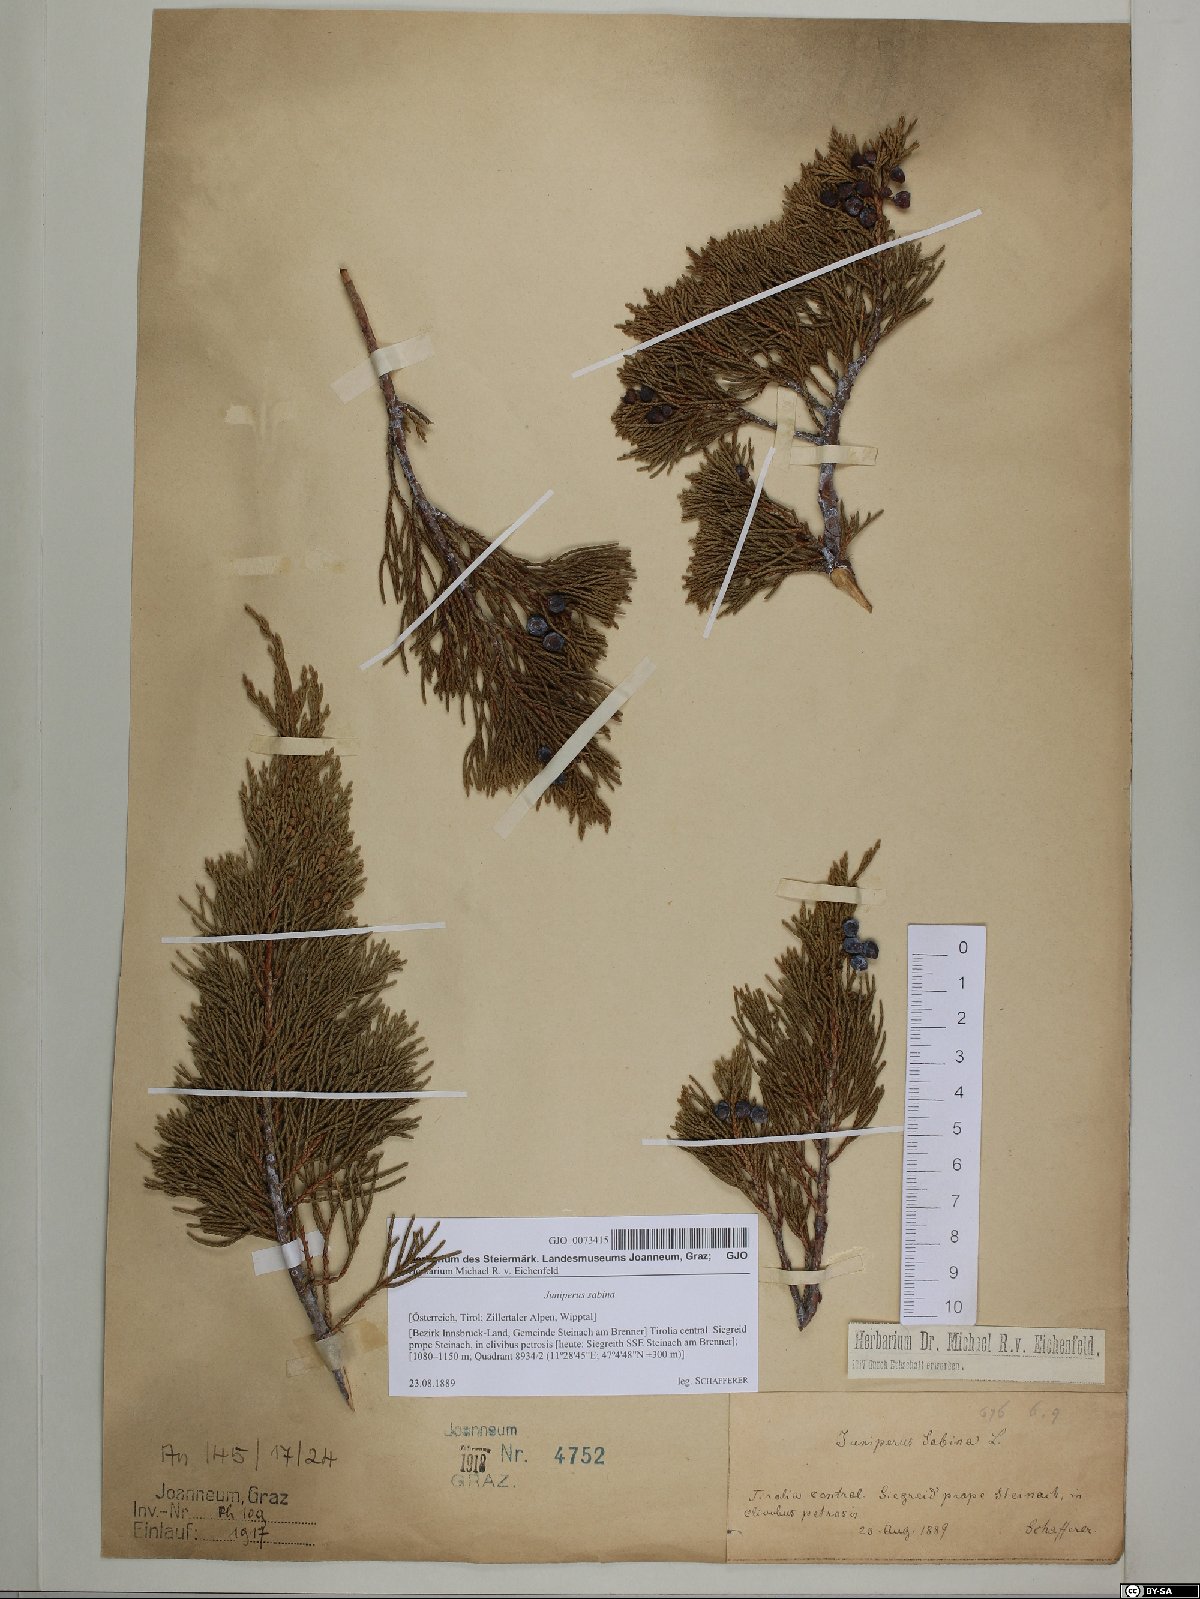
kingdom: Plantae
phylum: Tracheophyta
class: Pinopsida
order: Pinales
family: Cupressaceae
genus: Juniperus
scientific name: Juniperus sabina
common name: Savin
